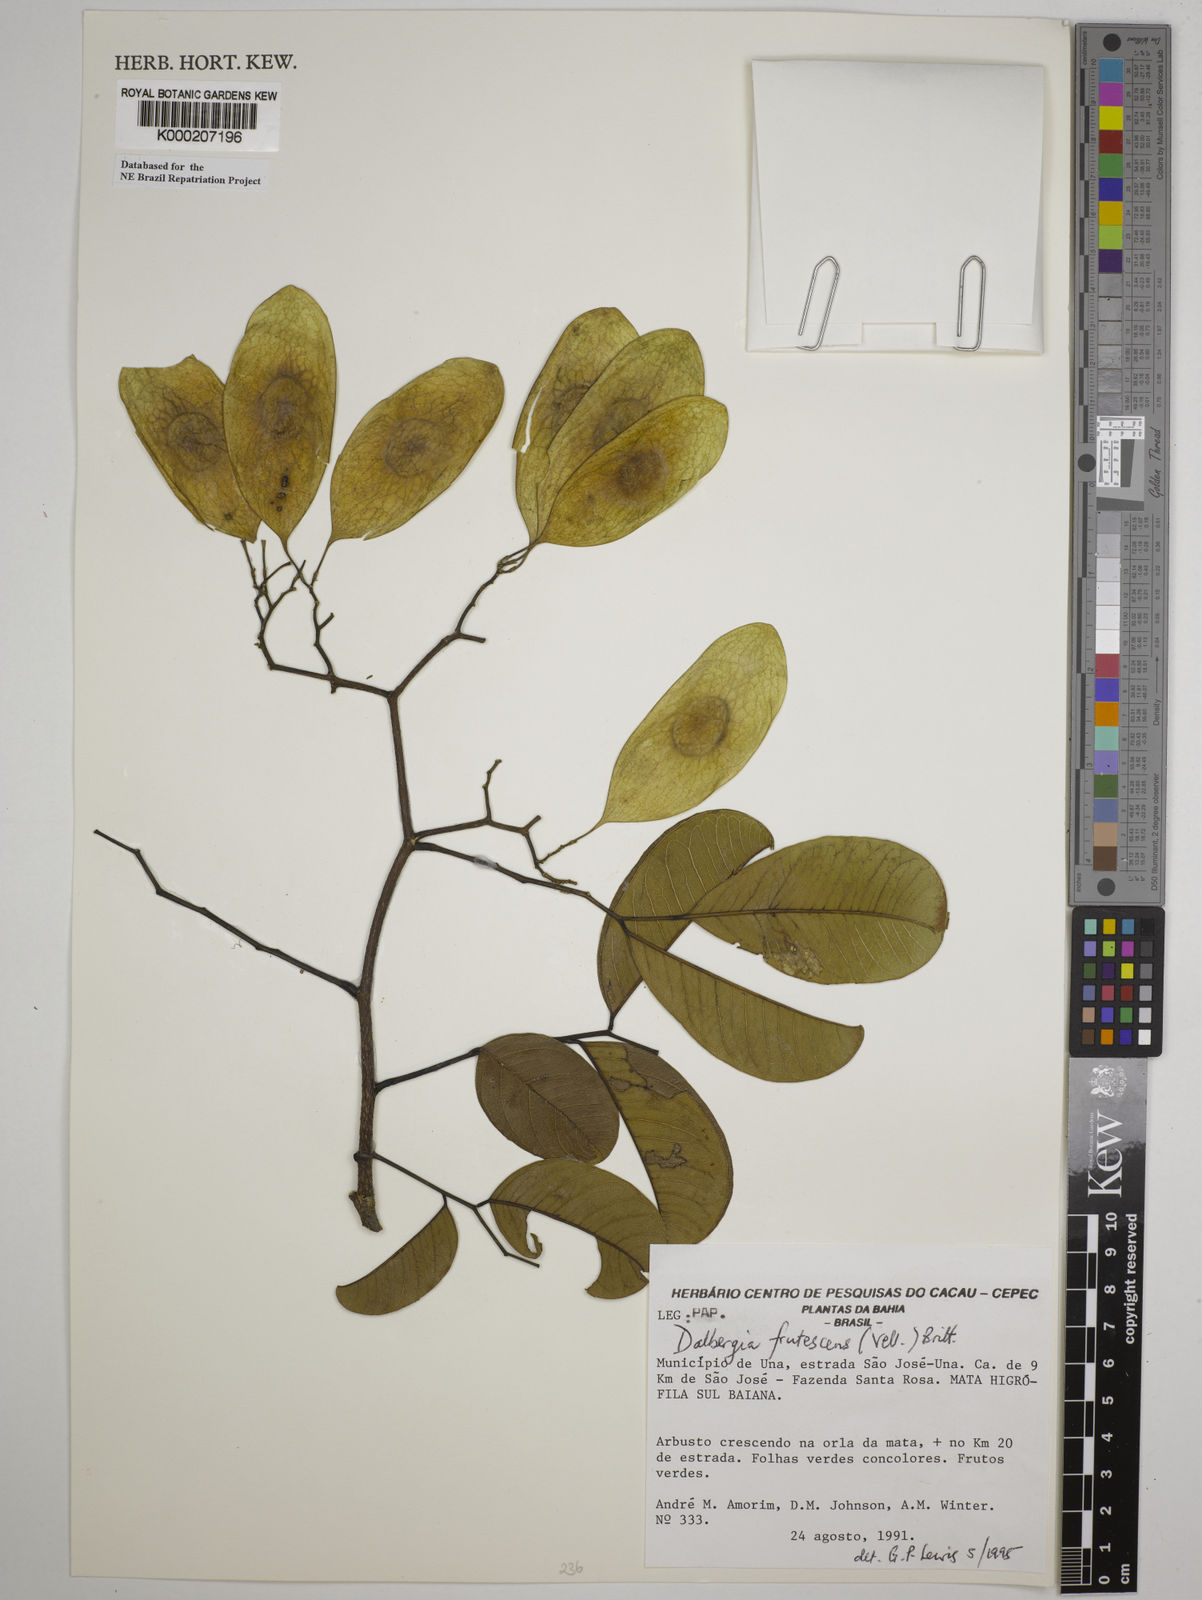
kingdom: Plantae
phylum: Tracheophyta
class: Magnoliopsida
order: Fabales
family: Fabaceae
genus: Dalbergia
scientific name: Dalbergia frutescens
